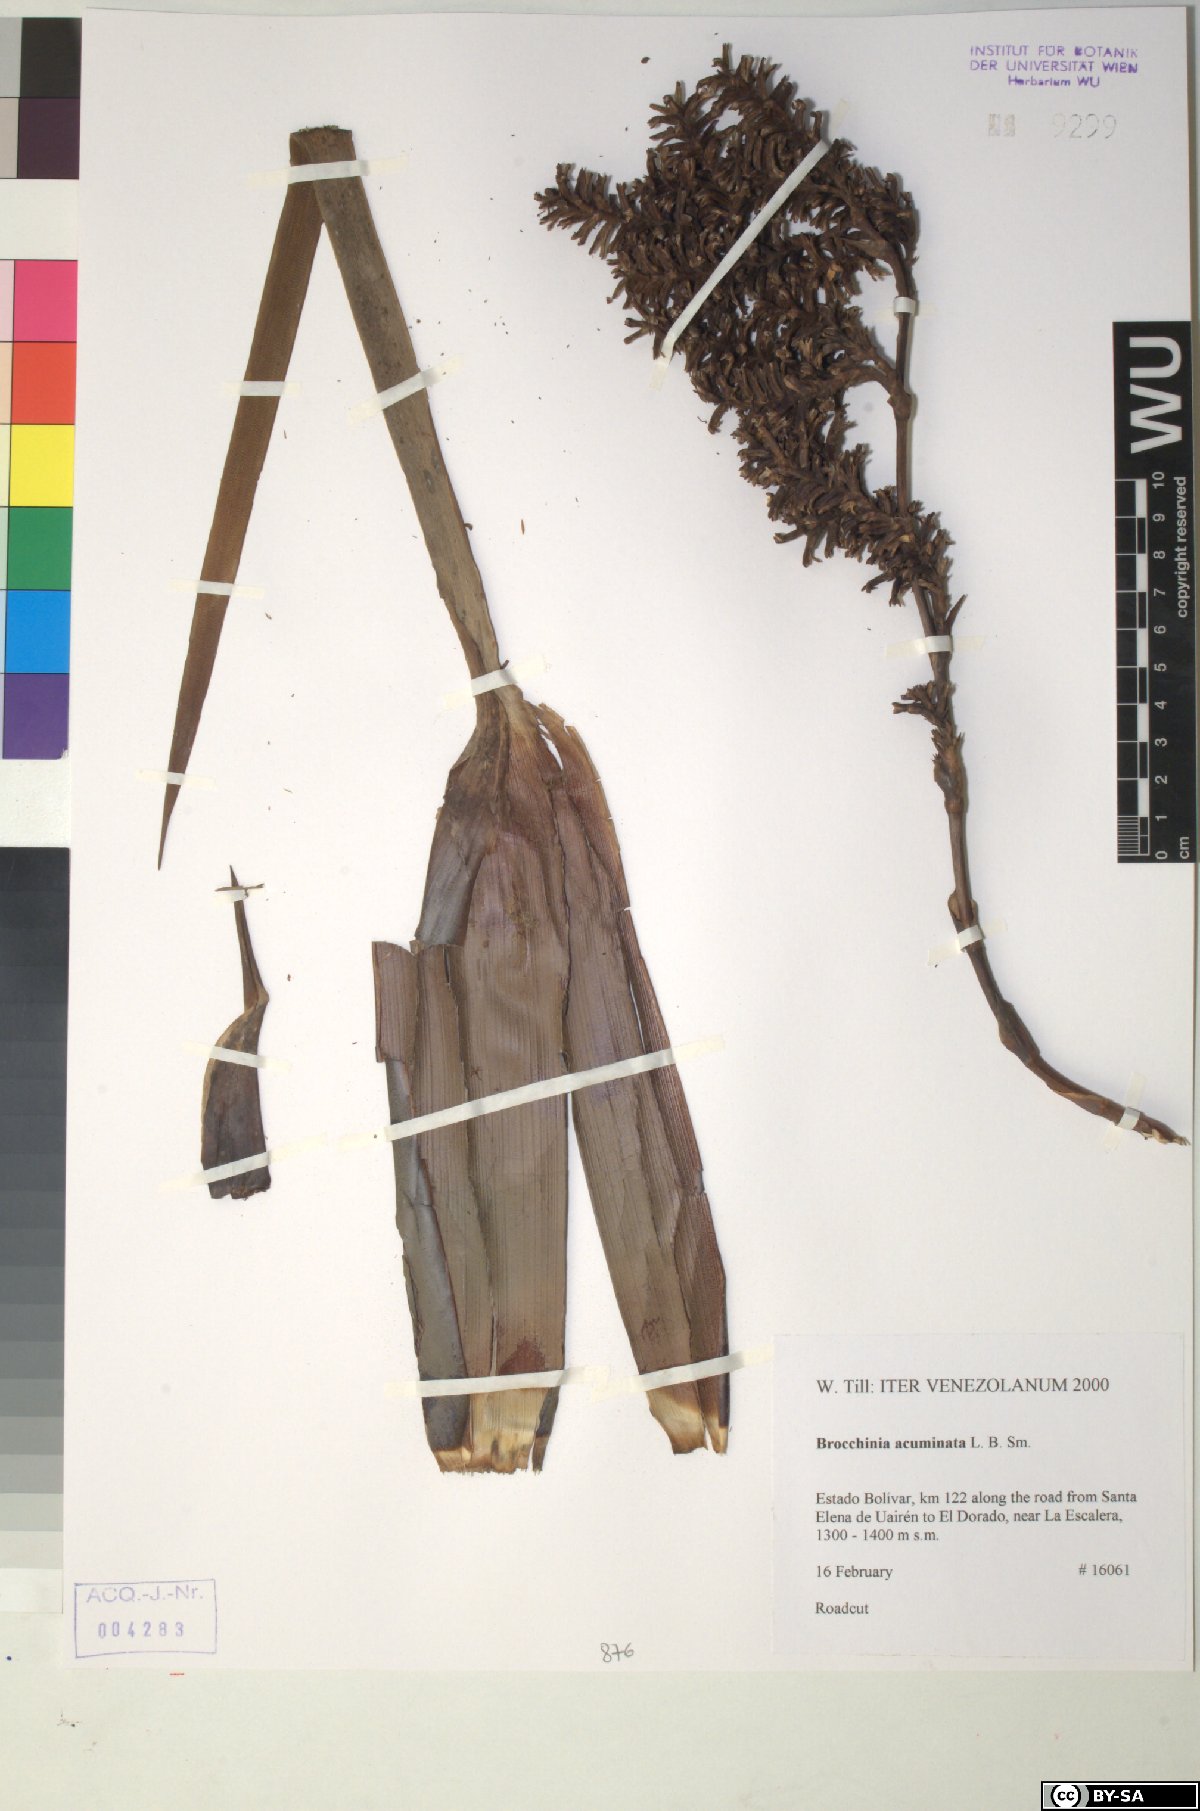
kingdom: Plantae
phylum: Tracheophyta
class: Liliopsida
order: Poales
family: Bromeliaceae
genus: Brocchinia
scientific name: Brocchinia acuminata
